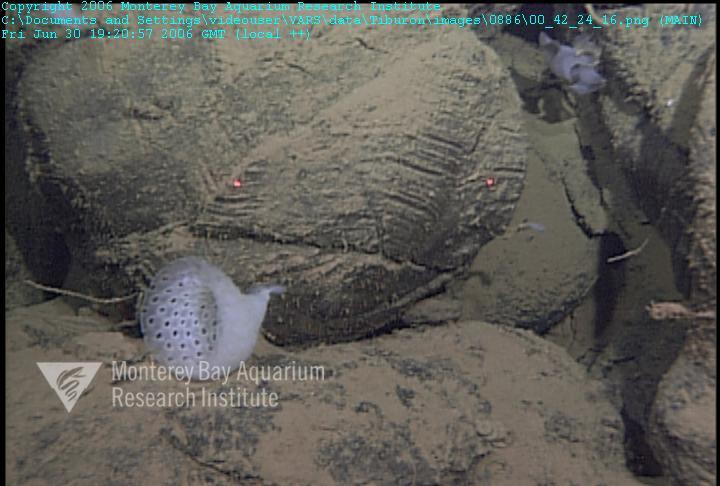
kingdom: Animalia
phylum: Porifera
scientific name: Porifera
